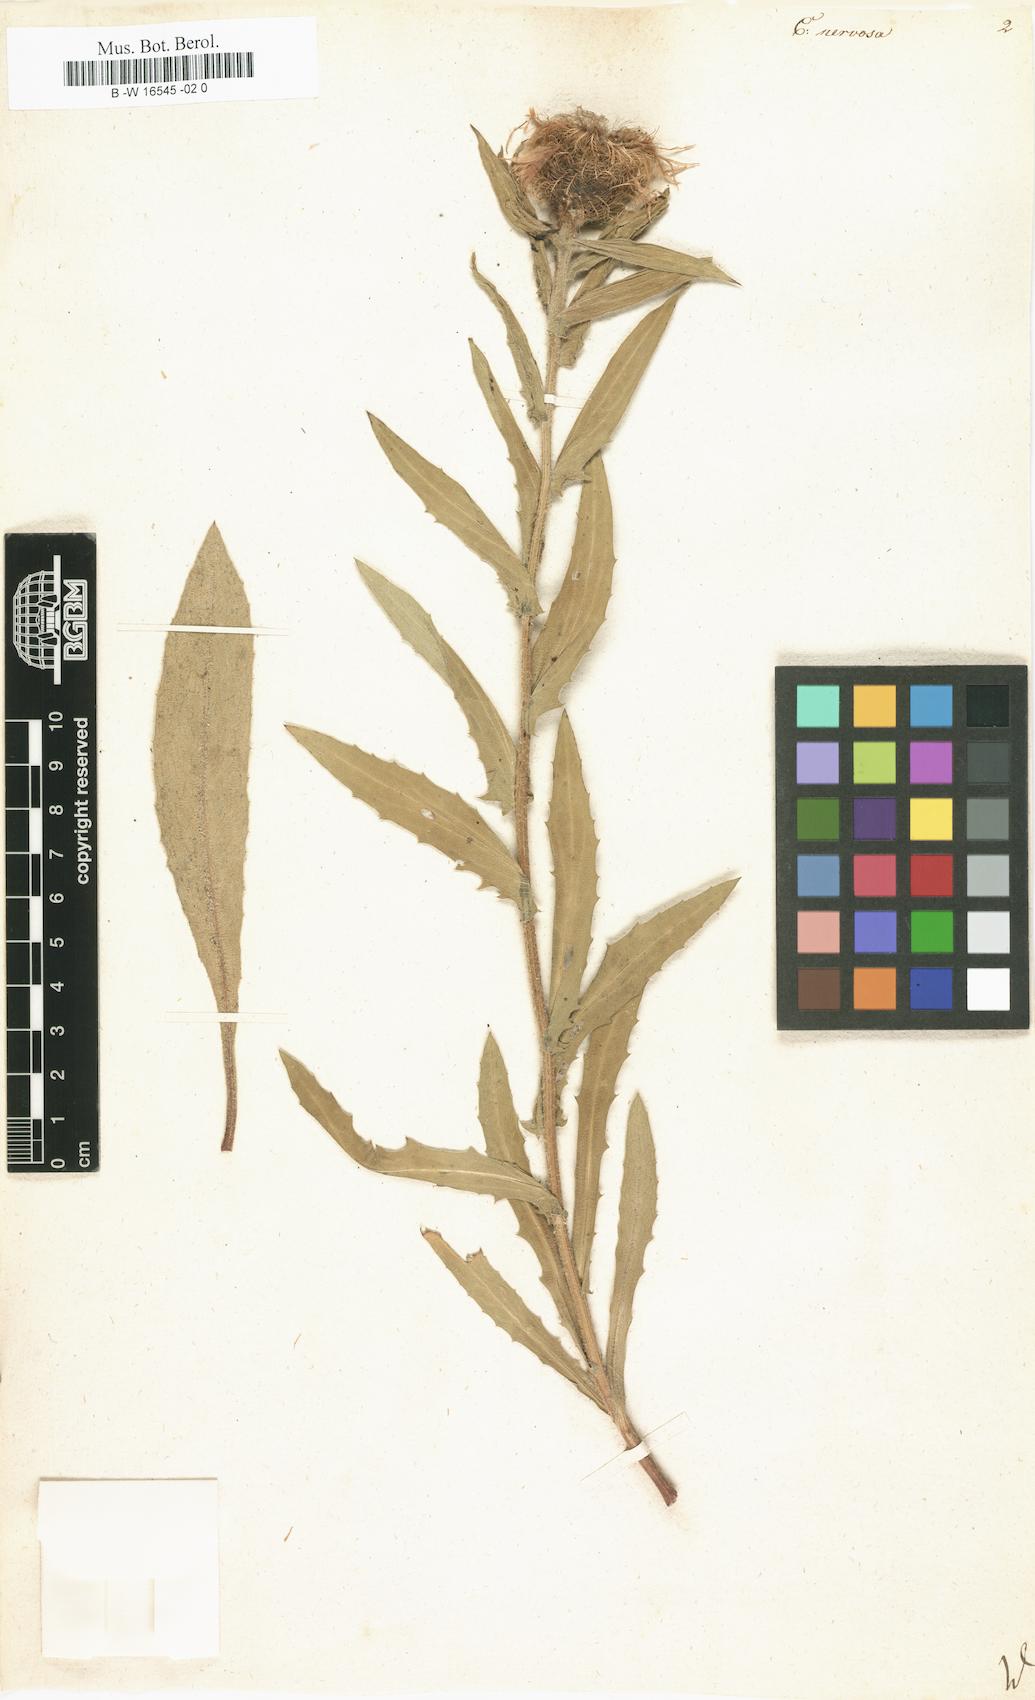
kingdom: Plantae
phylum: Tracheophyta
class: Magnoliopsida
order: Asterales
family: Asteraceae
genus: Centaurea
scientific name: Centaurea nervosa
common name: Singleflower knapweed
